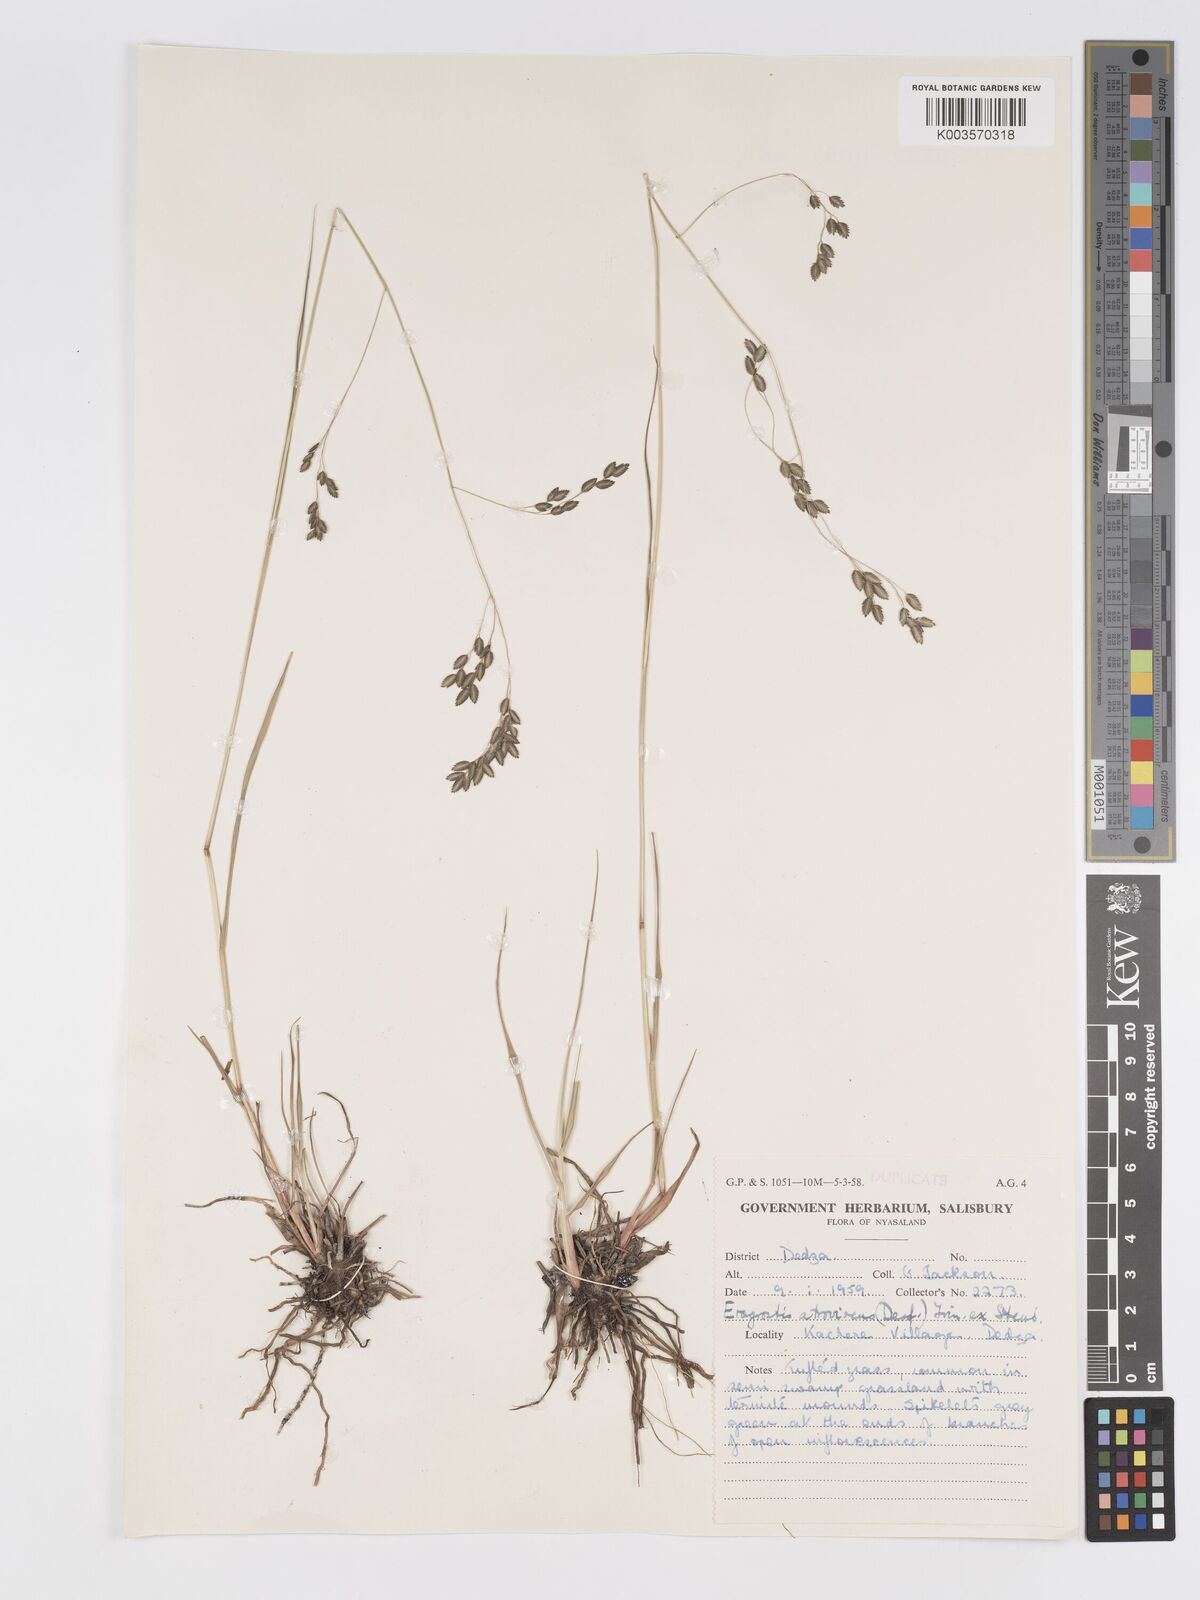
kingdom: Plantae
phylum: Tracheophyta
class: Liliopsida
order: Poales
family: Poaceae
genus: Eragrostis
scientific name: Eragrostis botryodes
